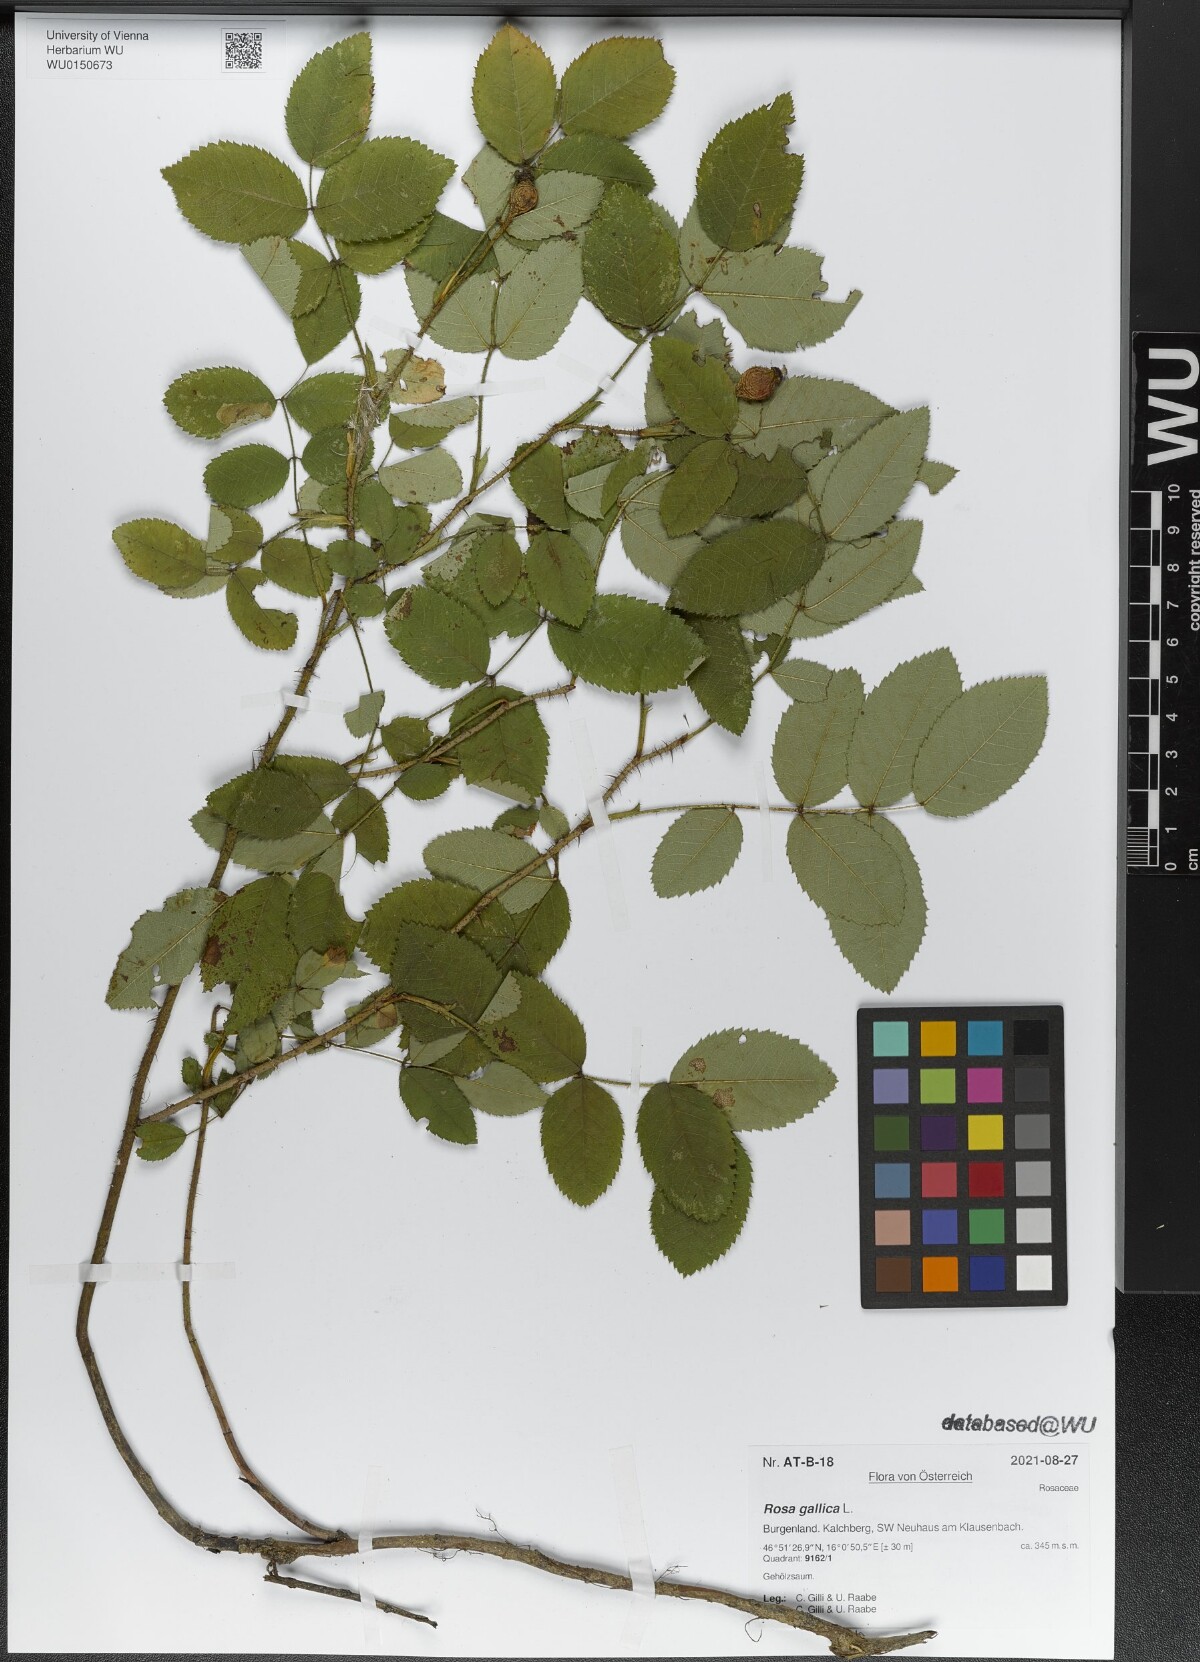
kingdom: Plantae
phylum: Tracheophyta
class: Magnoliopsida
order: Rosales
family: Rosaceae
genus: Rosa
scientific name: Rosa gallica
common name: French rose
